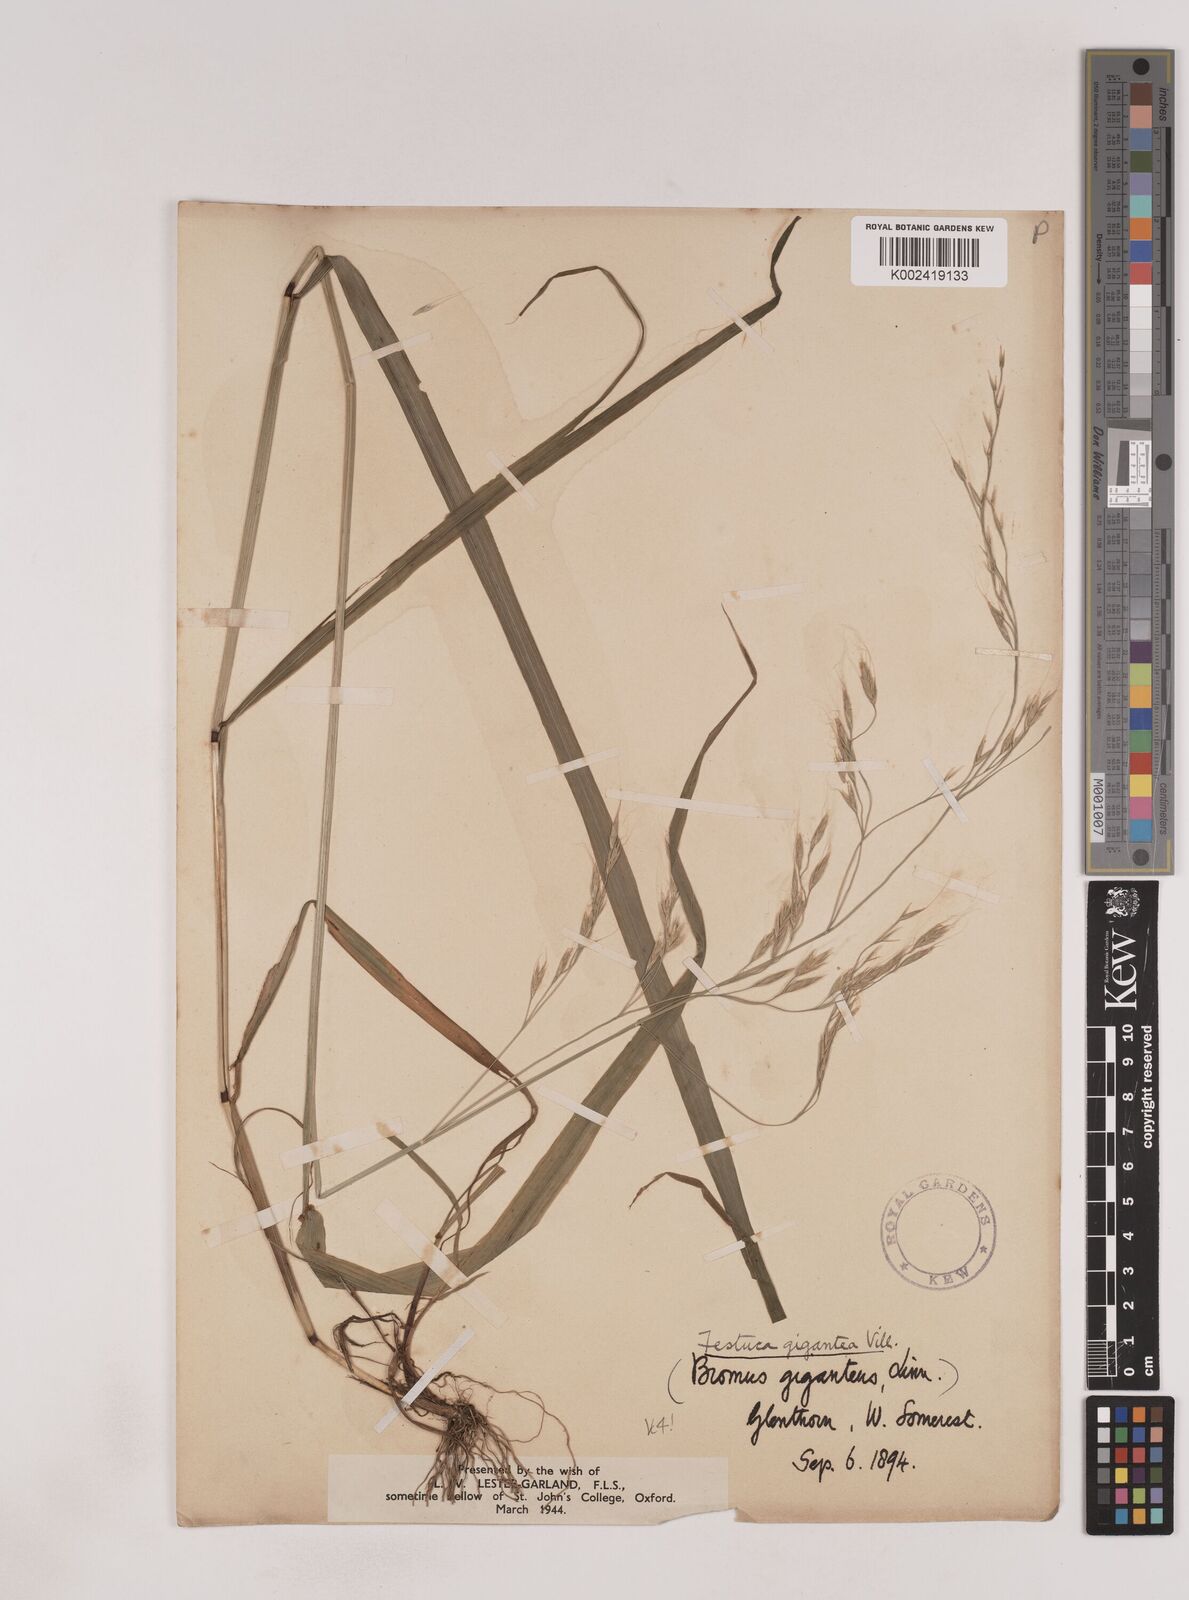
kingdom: Plantae
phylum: Tracheophyta
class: Liliopsida
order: Poales
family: Poaceae
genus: Lolium
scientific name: Lolium giganteum
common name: Giant fescue
